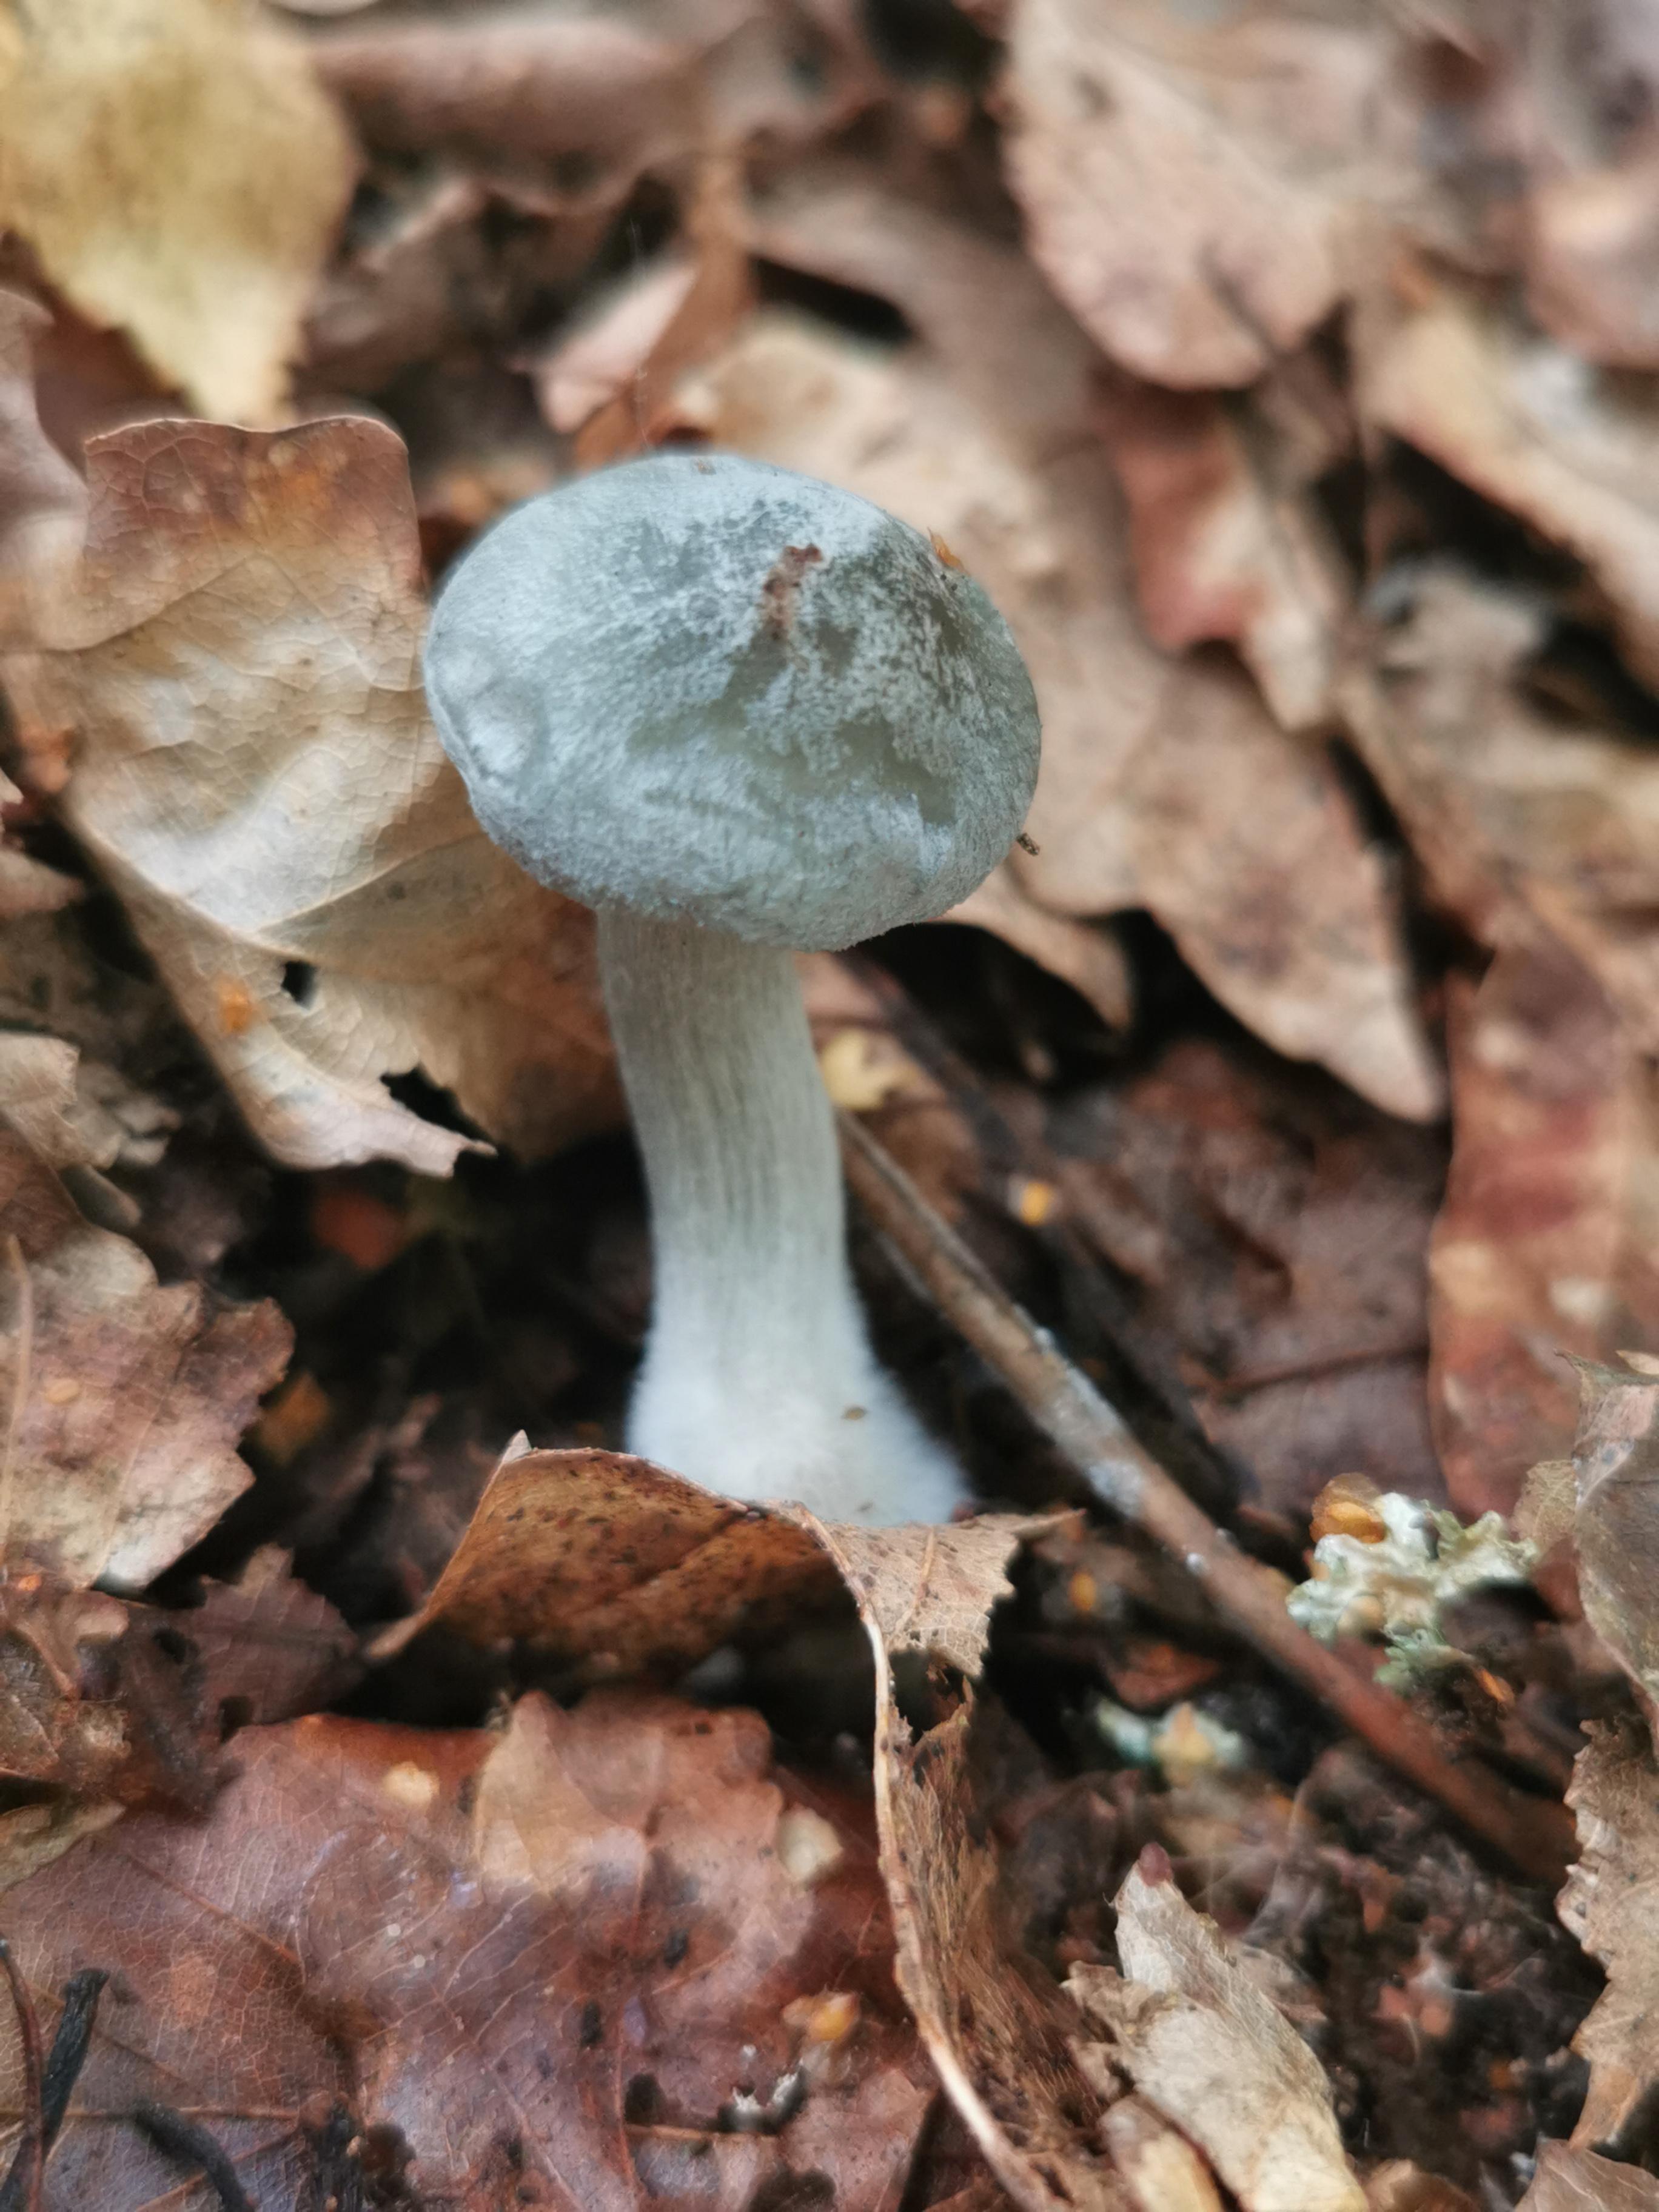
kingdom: Fungi
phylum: Basidiomycota
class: Agaricomycetes
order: Agaricales
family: Tricholomataceae
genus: Clitocybe
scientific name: Clitocybe odora
